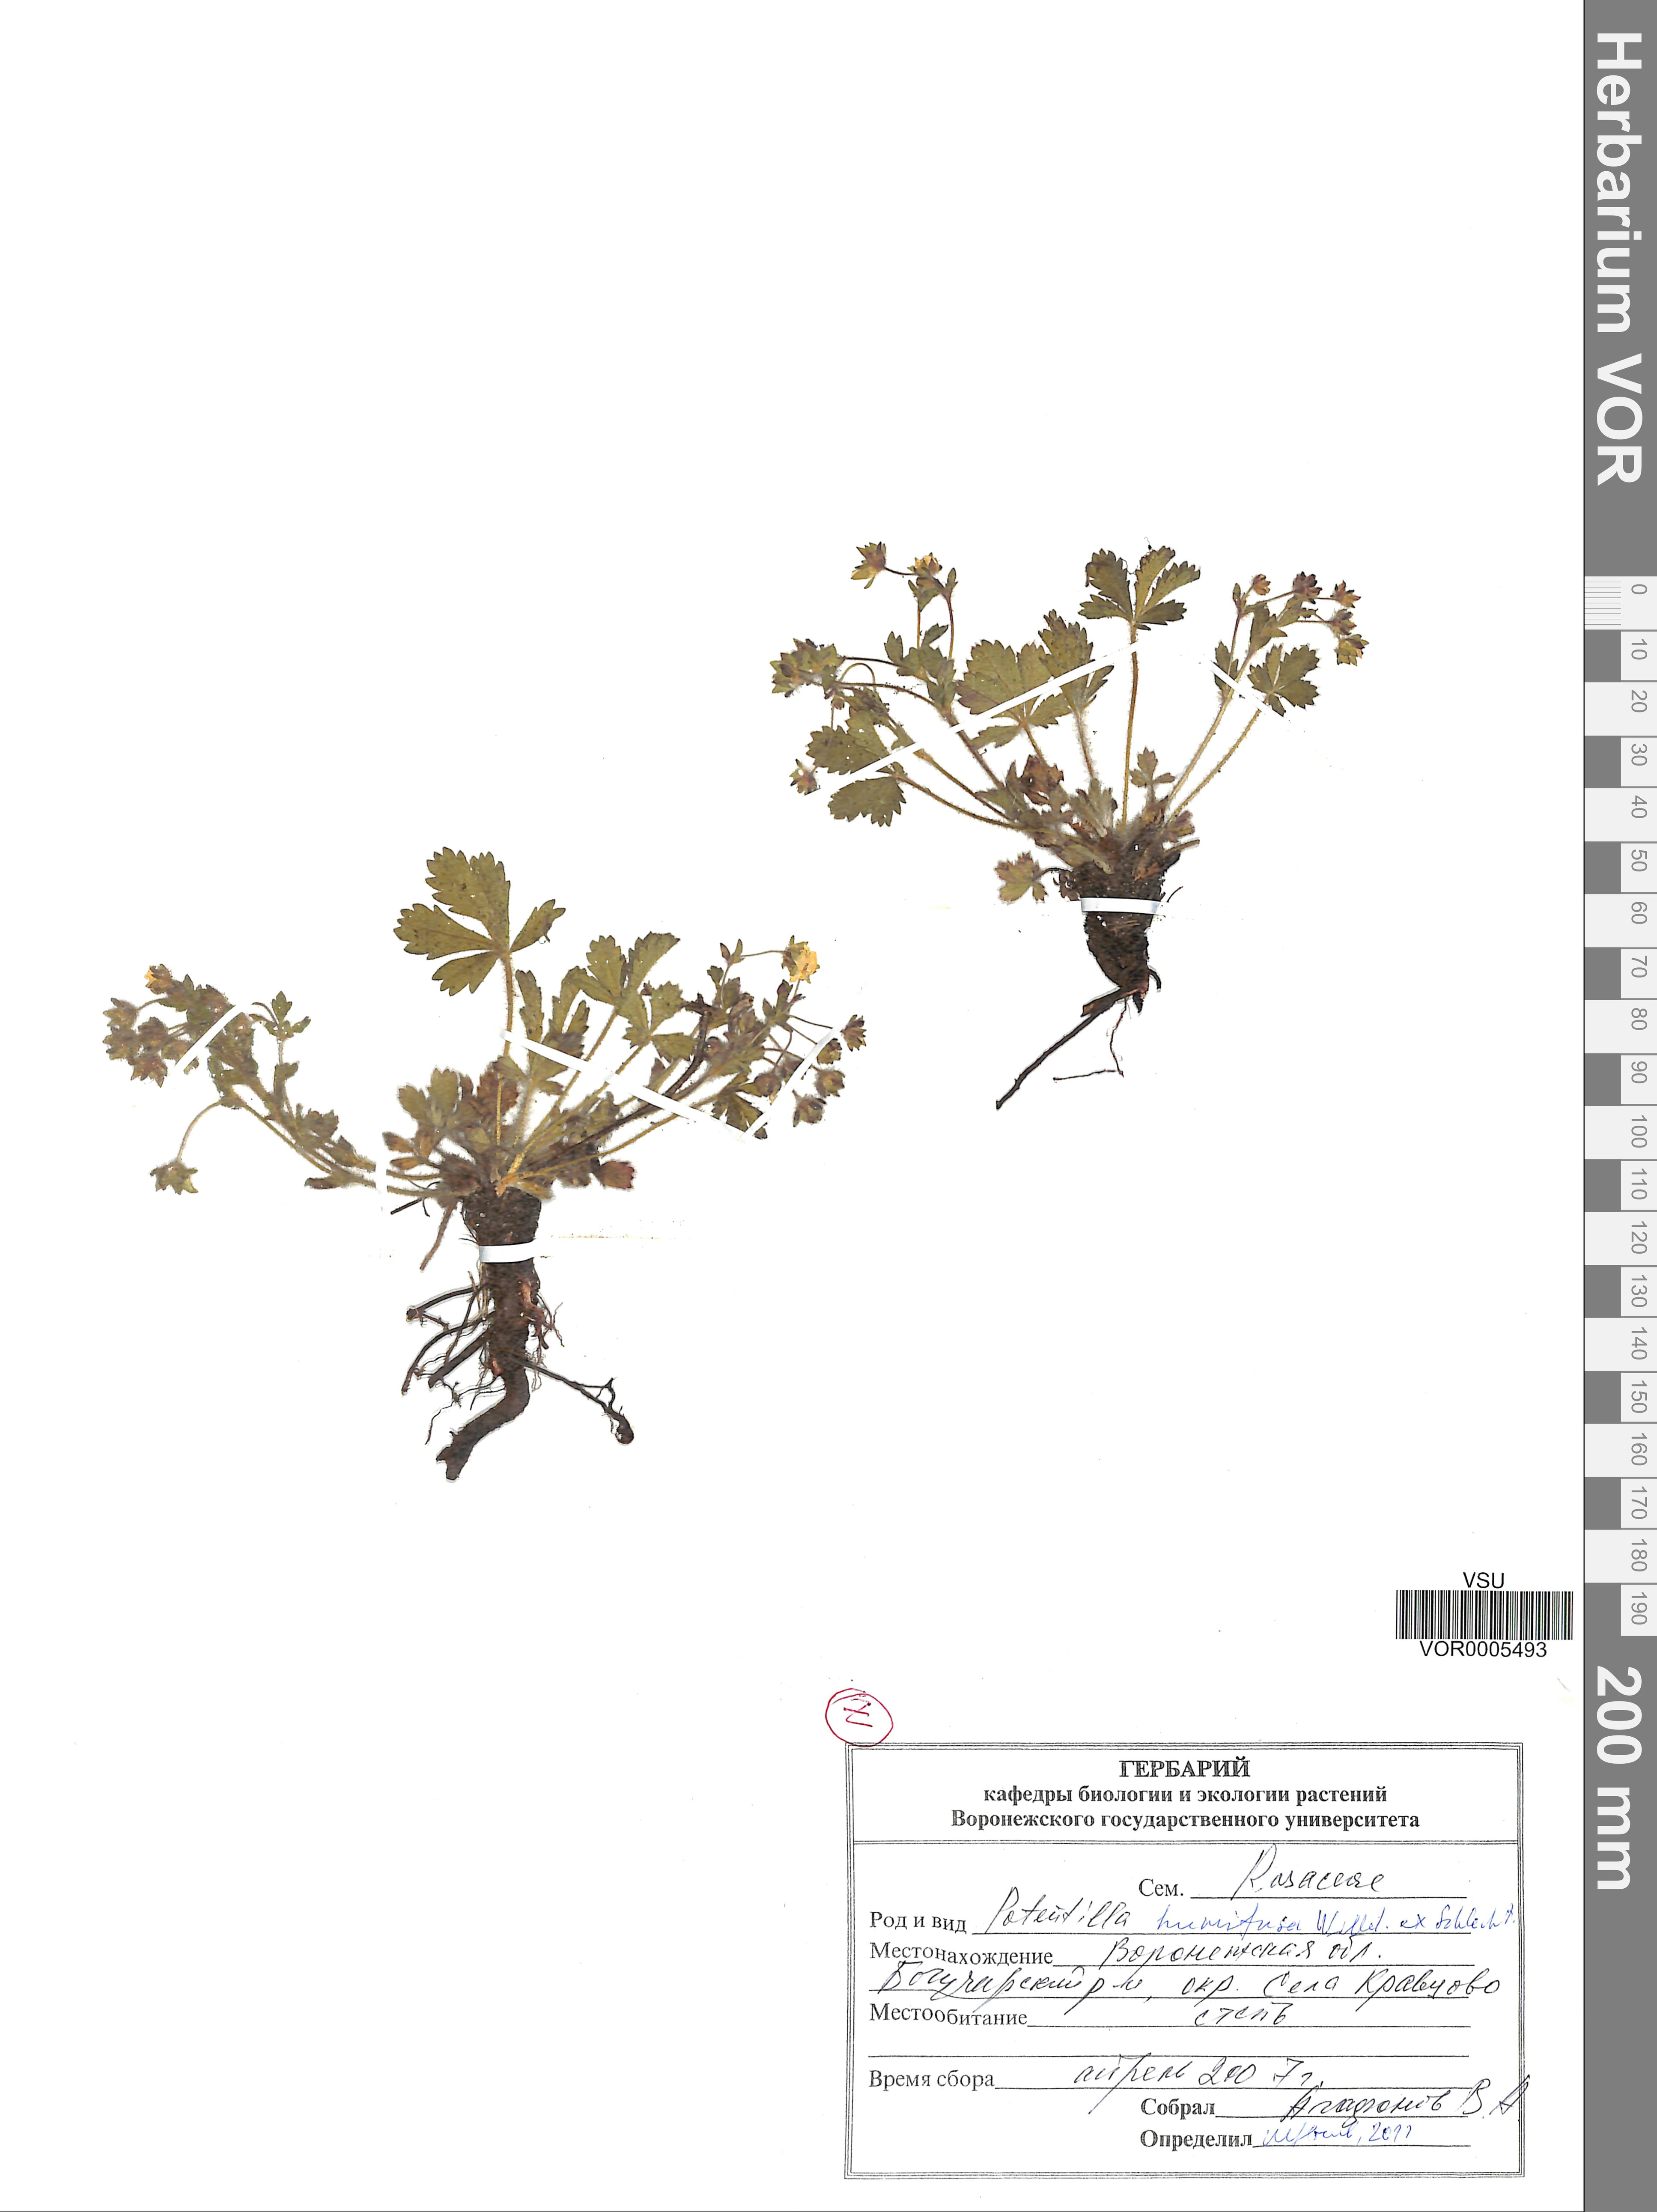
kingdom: Plantae
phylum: Tracheophyta
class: Magnoliopsida
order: Rosales
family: Rosaceae
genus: Potentilla
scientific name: Potentilla humifusa
